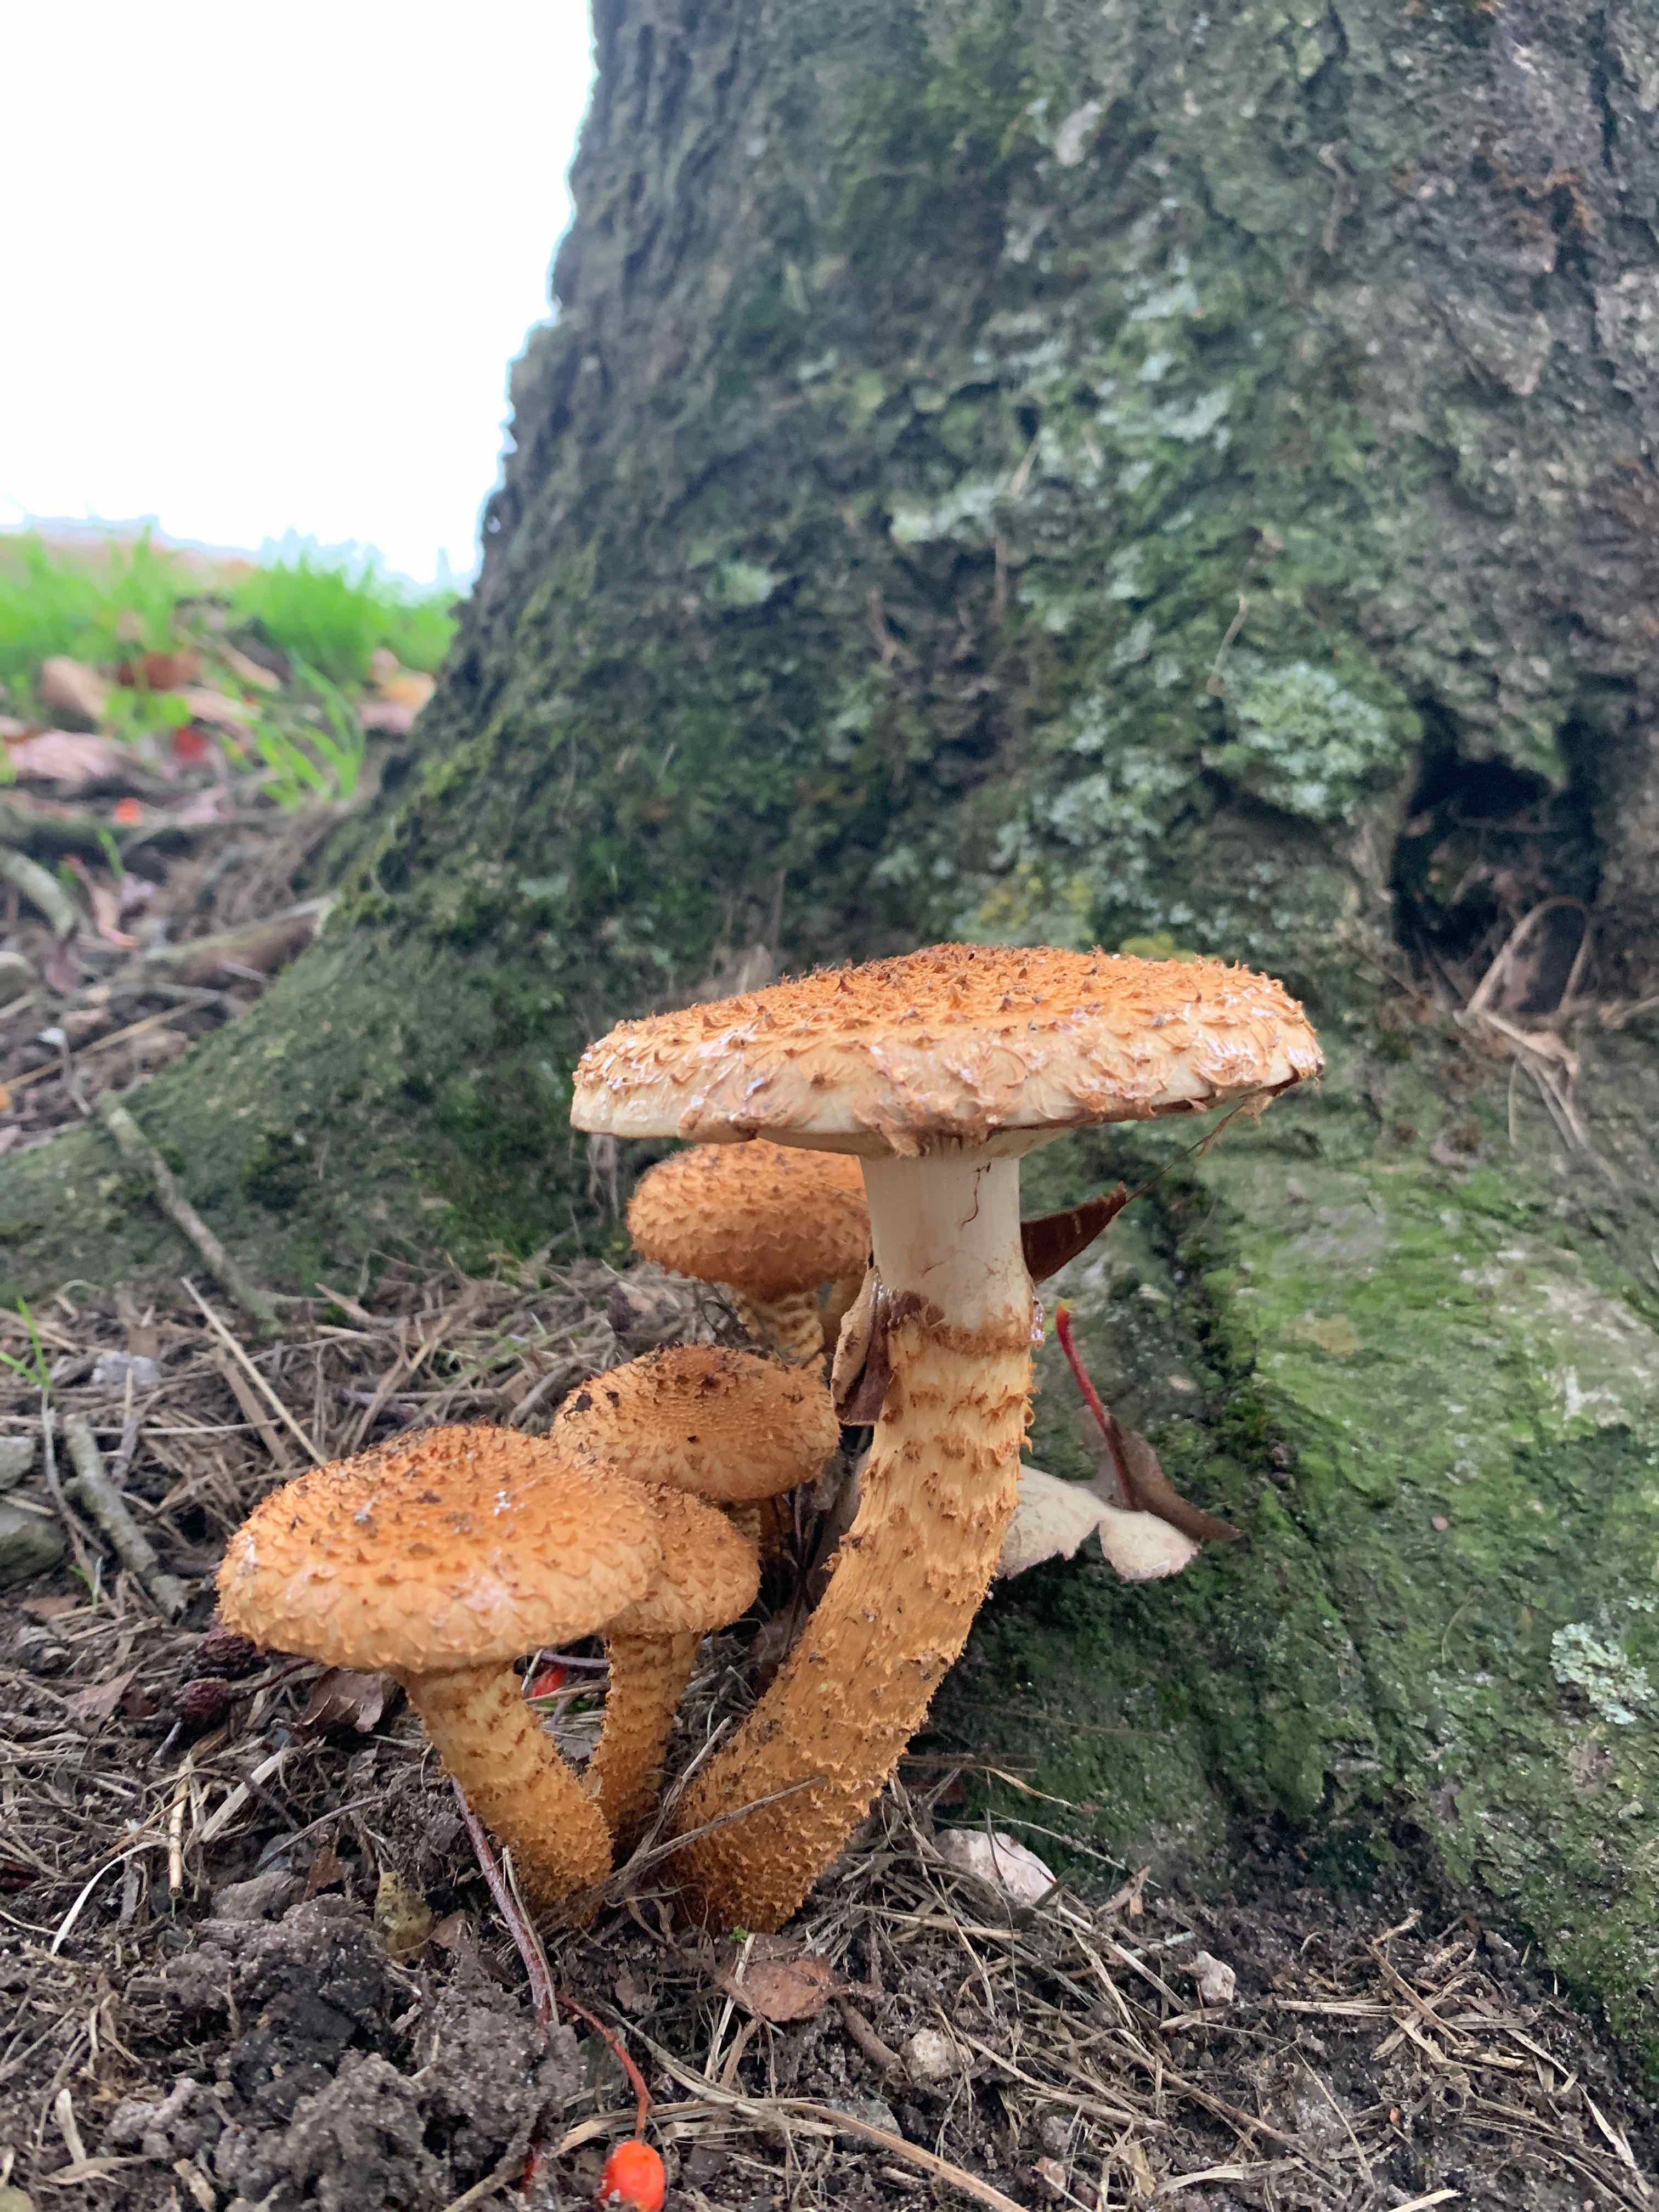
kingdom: Fungi
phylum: Basidiomycota
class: Agaricomycetes
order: Agaricales
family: Strophariaceae
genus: Pholiota
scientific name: Pholiota squarrosa
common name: krumskællet skælhat
